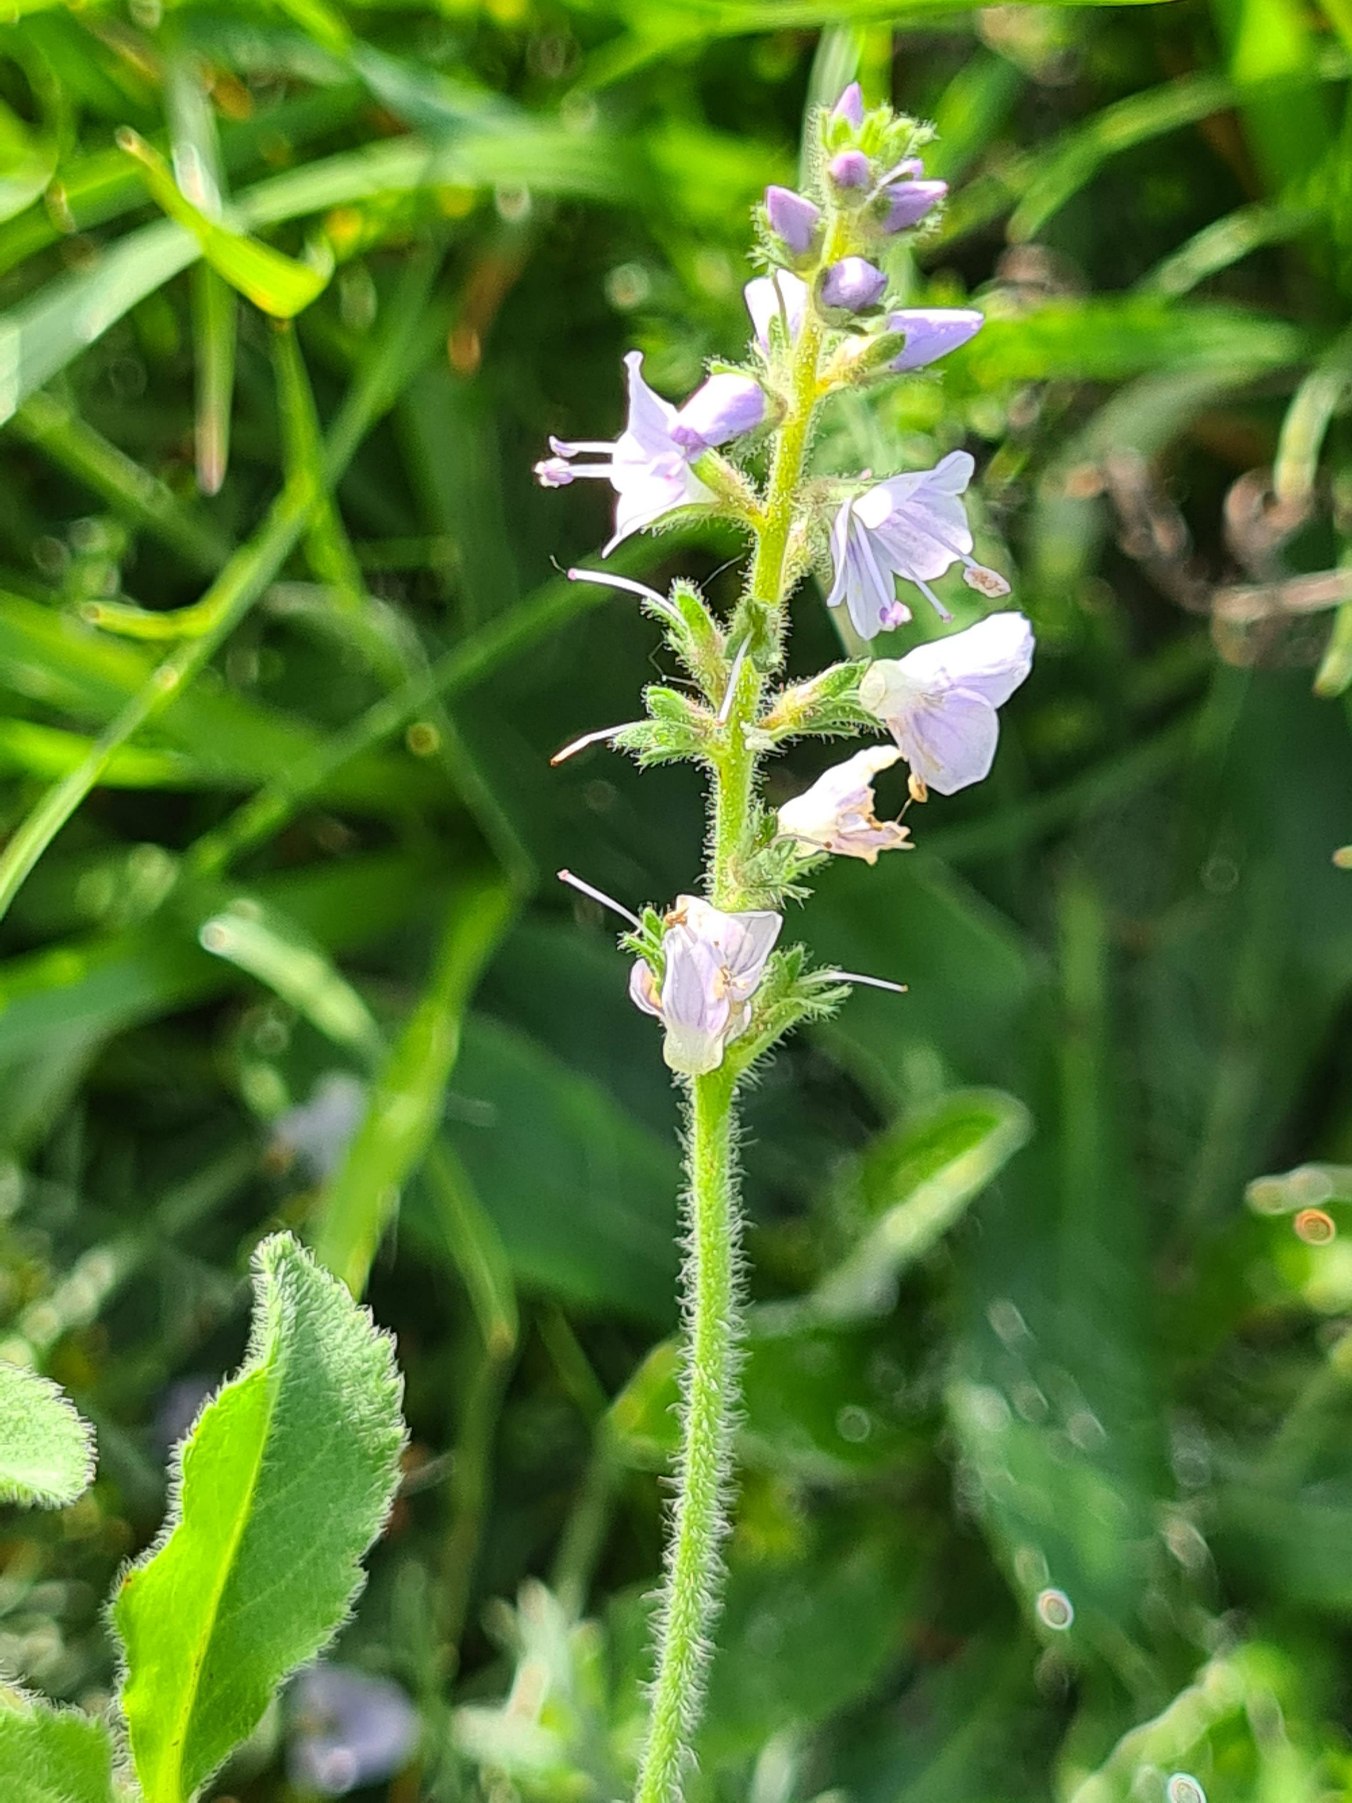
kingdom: Plantae
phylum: Tracheophyta
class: Magnoliopsida
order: Lamiales
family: Plantaginaceae
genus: Veronica
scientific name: Veronica officinalis
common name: Læge-ærenpris
